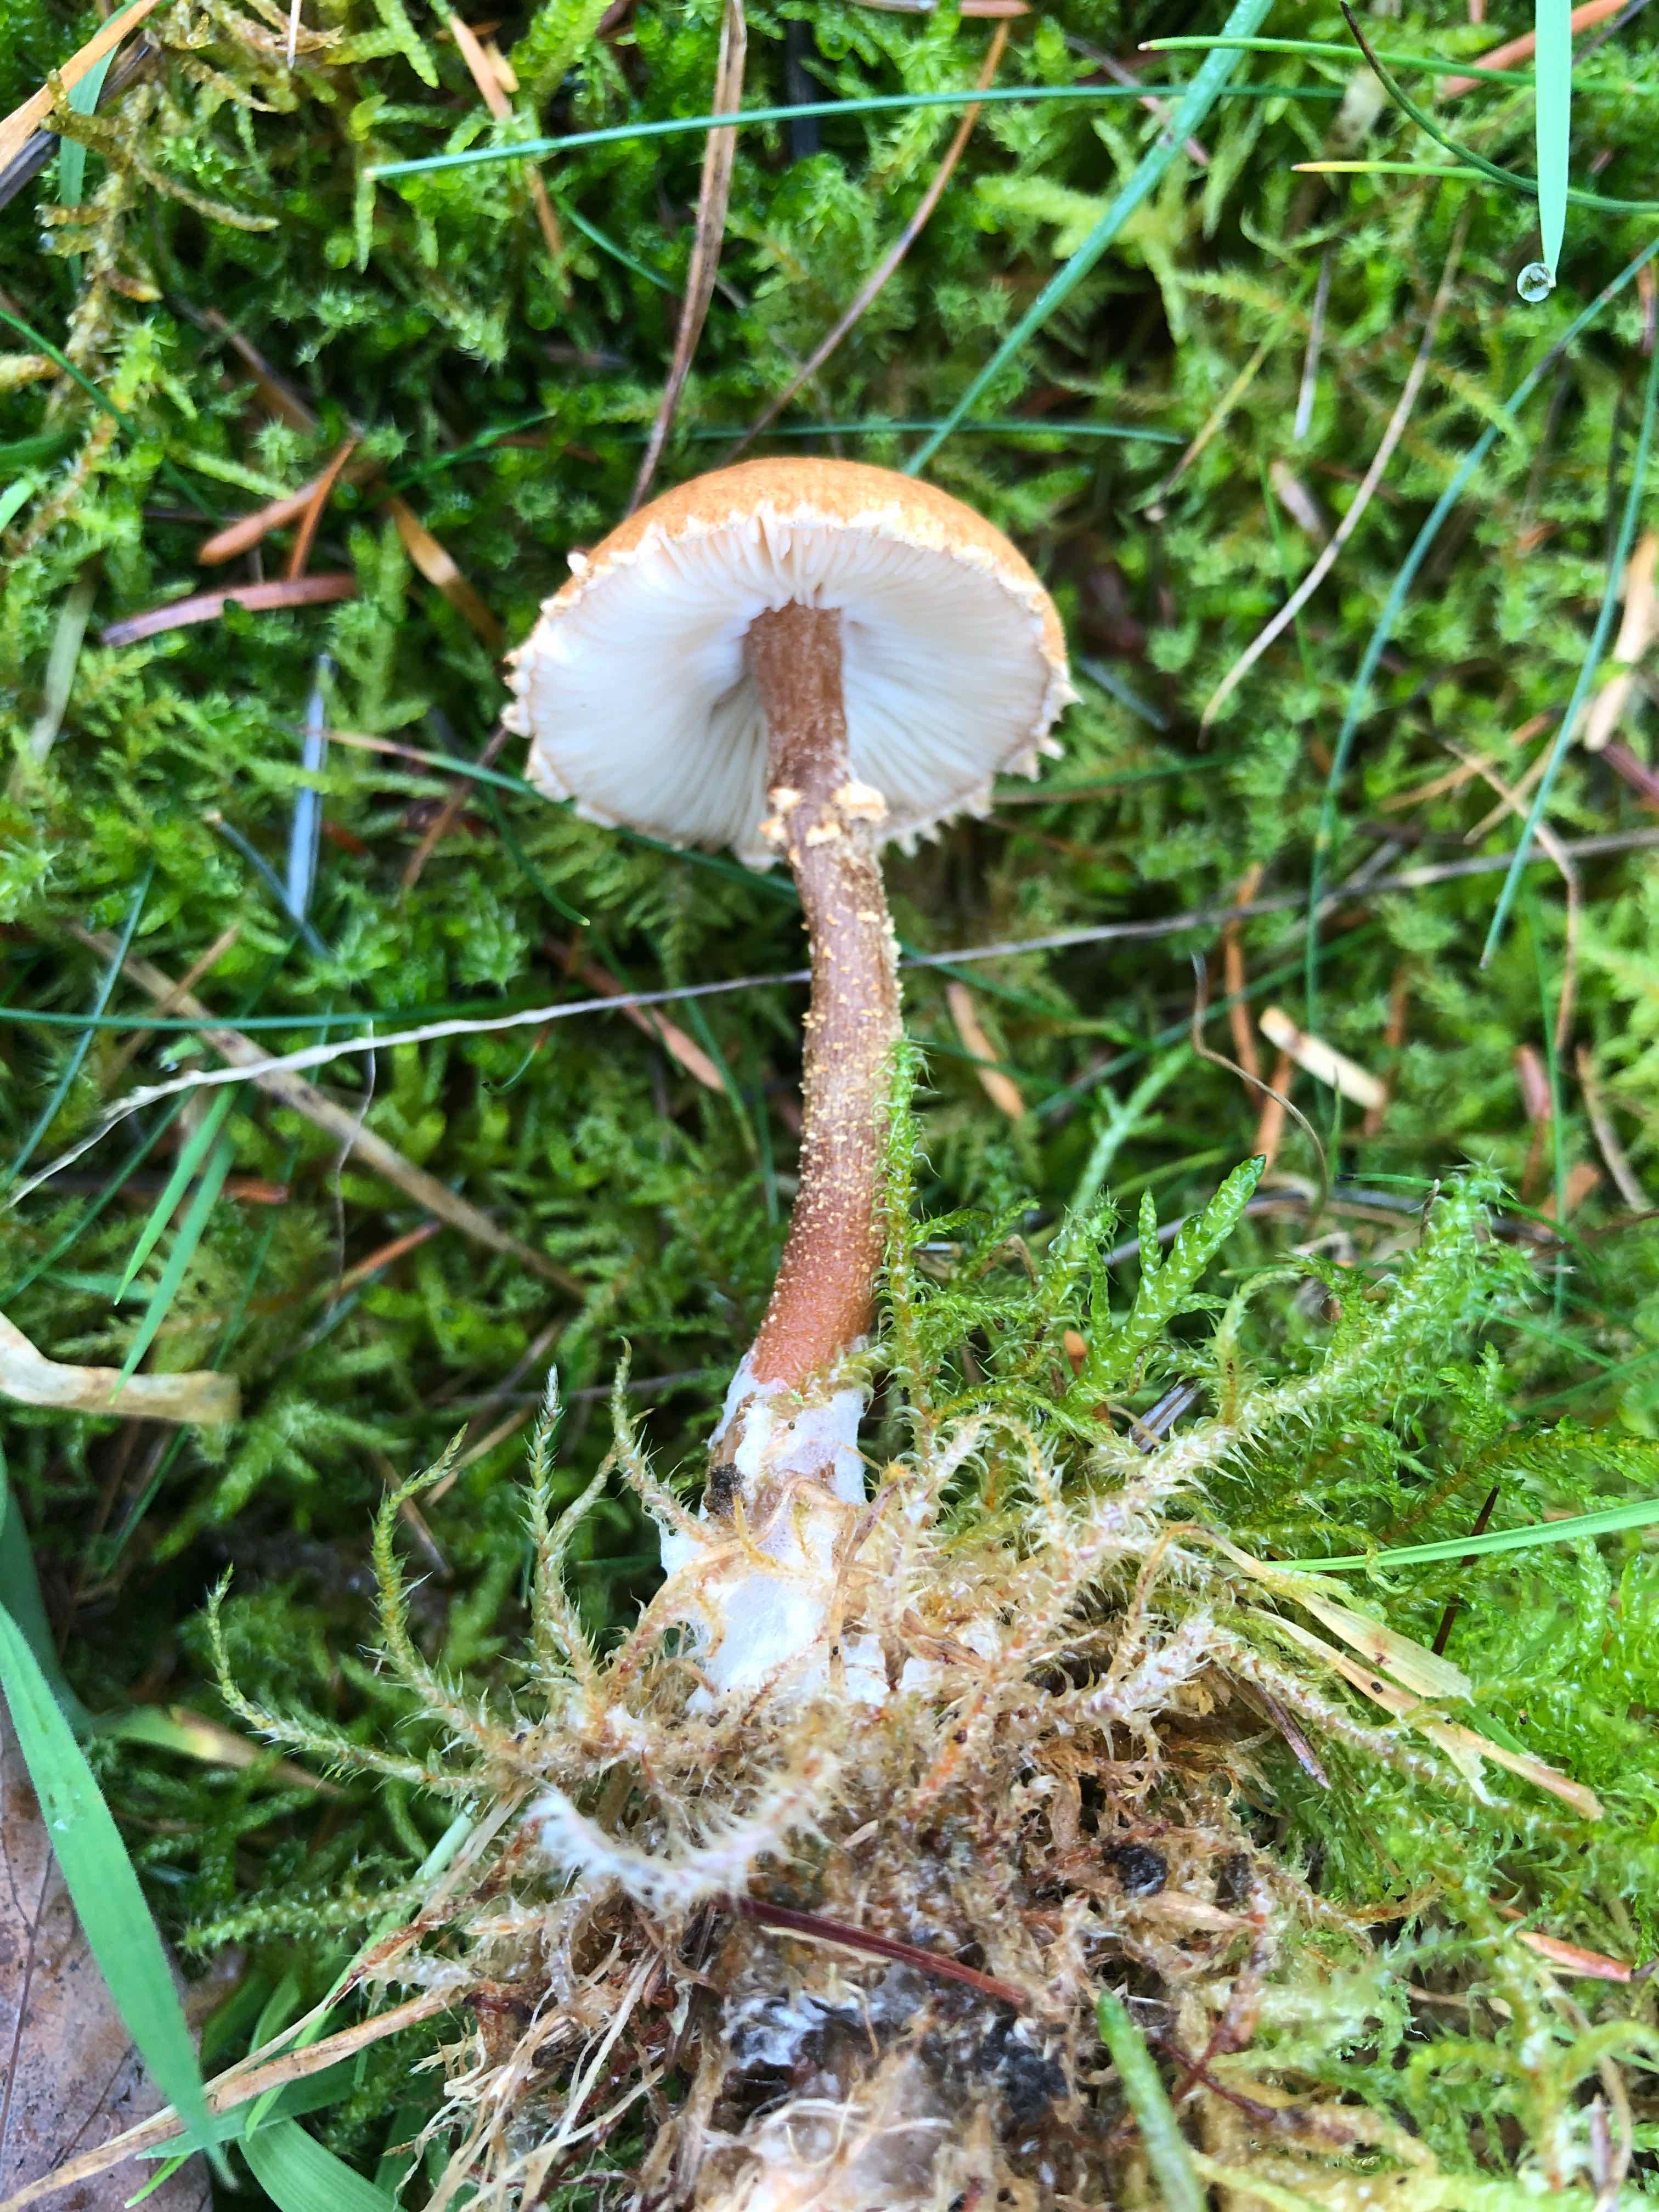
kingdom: Fungi
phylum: Basidiomycota
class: Agaricomycetes
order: Agaricales
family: Tricholomataceae
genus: Cystoderma
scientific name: Cystoderma amianthinum
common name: okkergul grynhat
